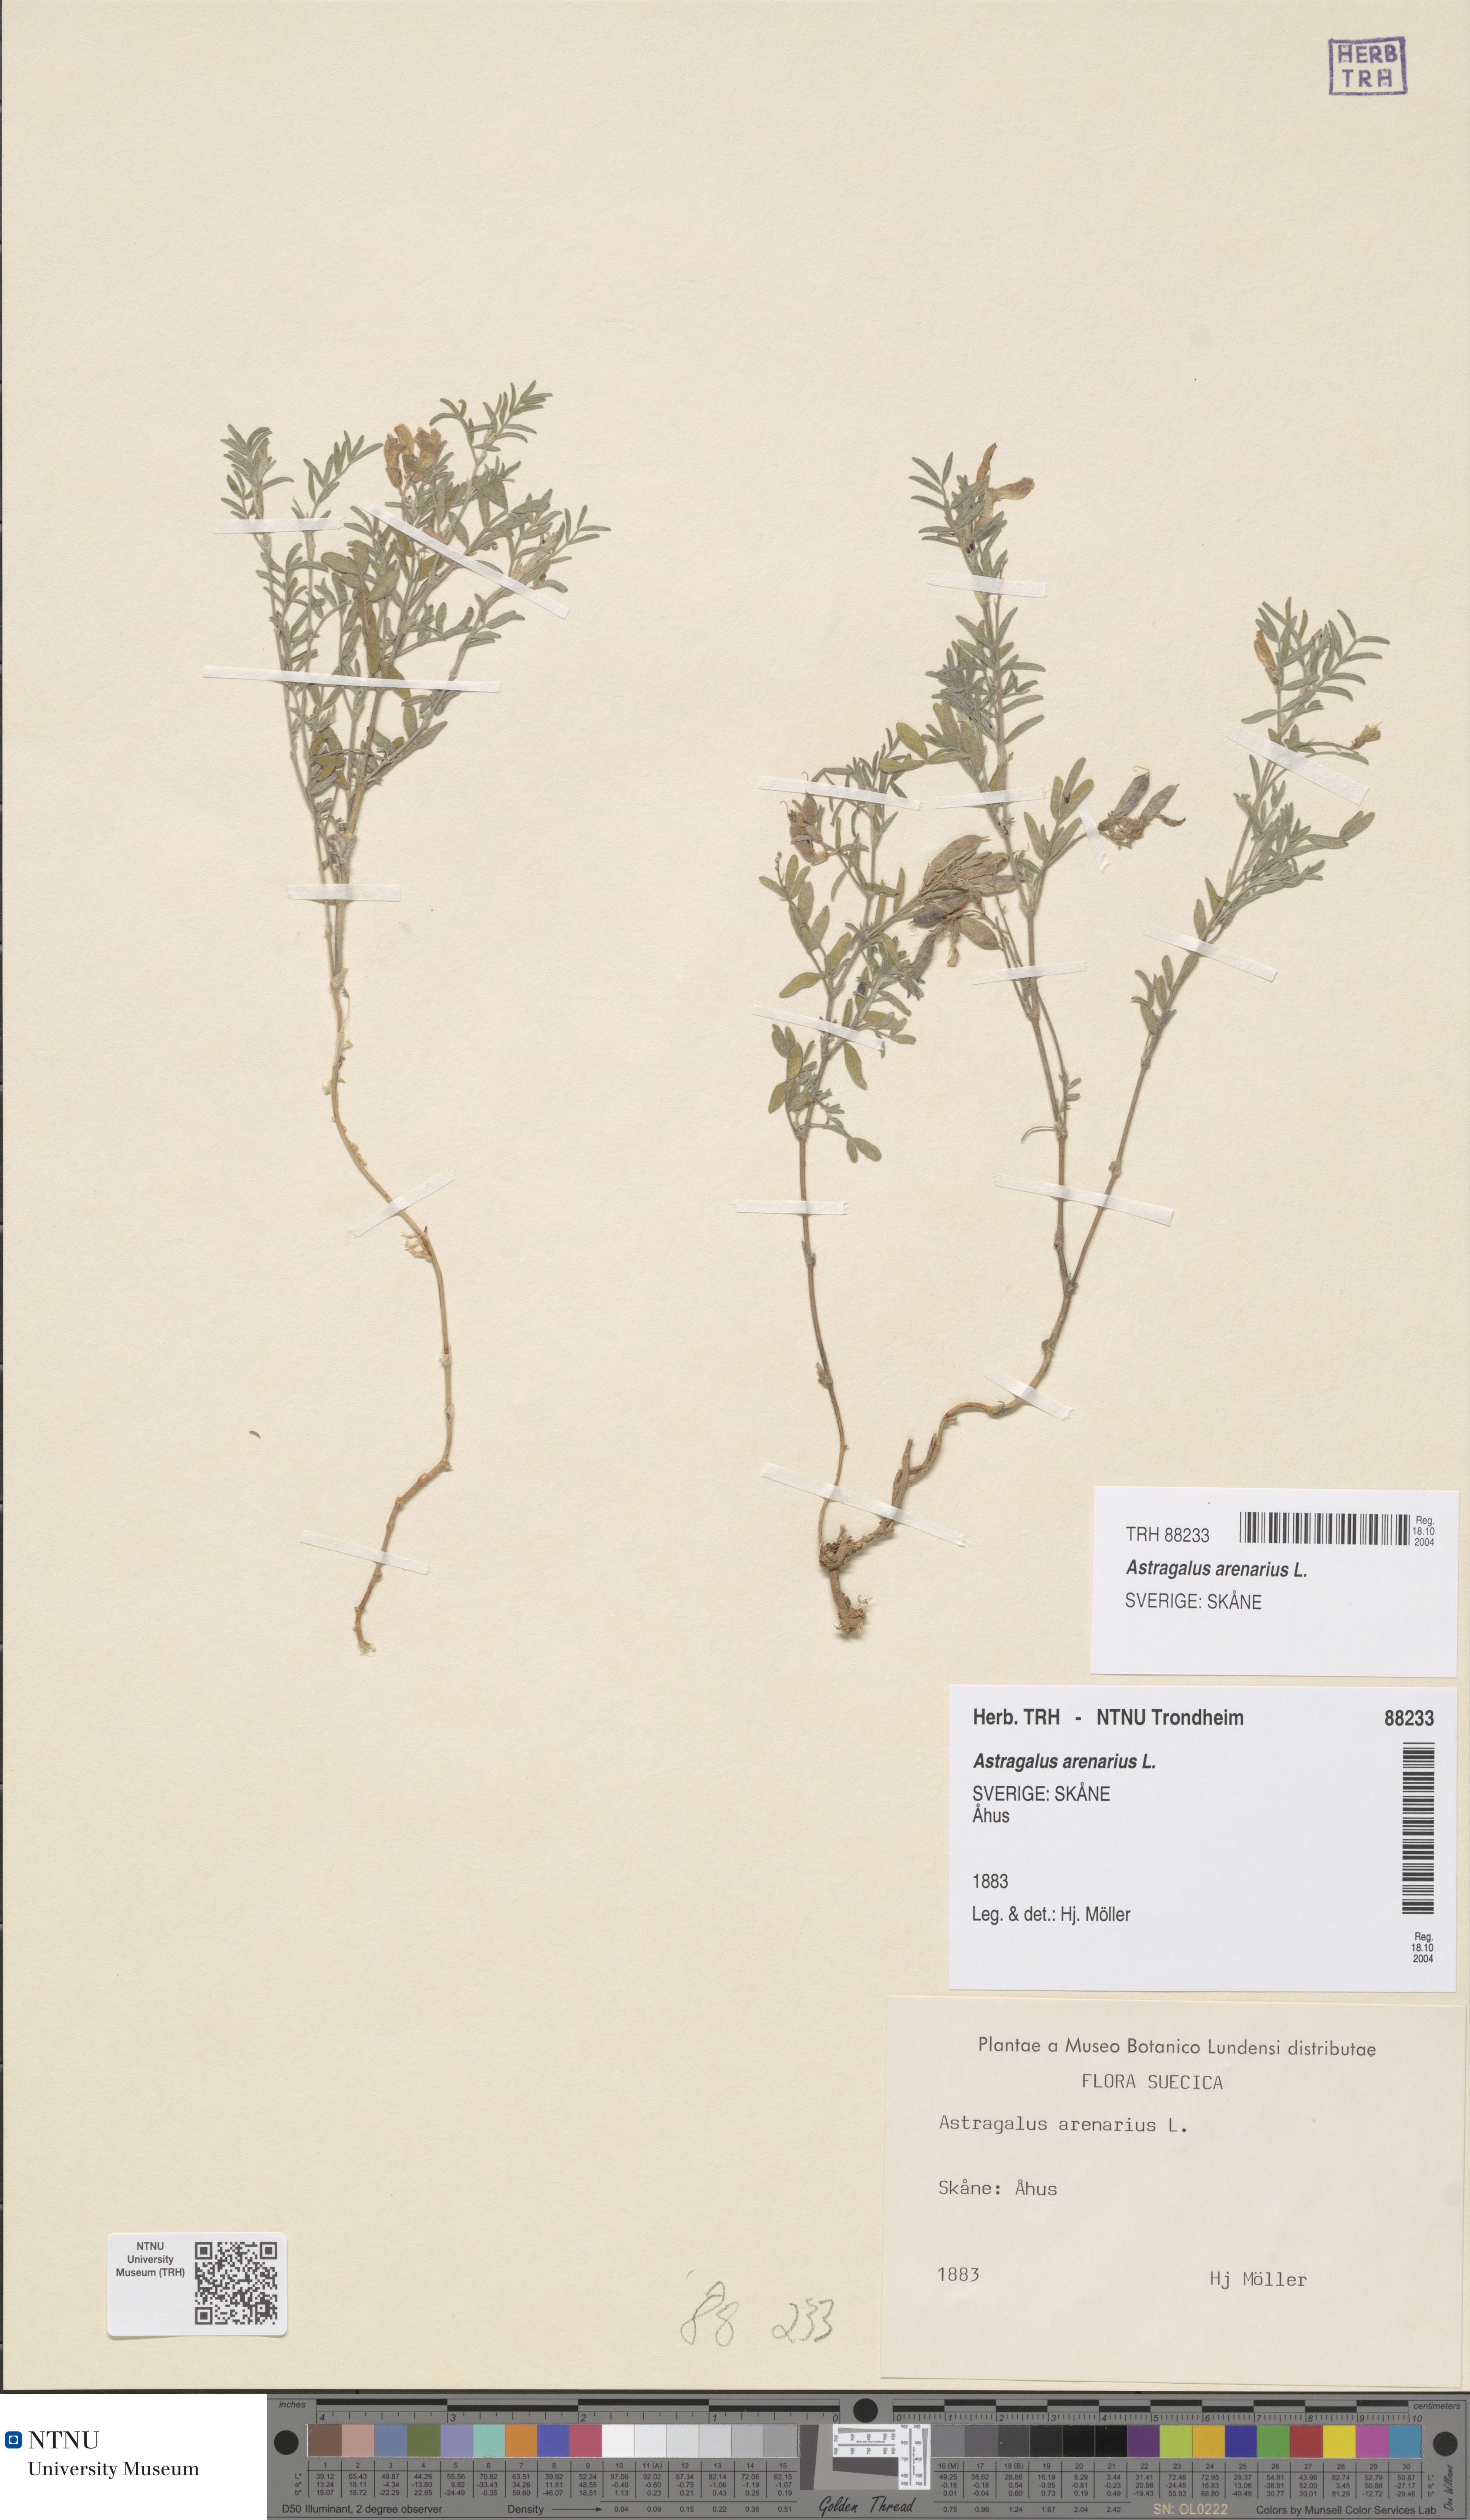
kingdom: Plantae
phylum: Tracheophyta
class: Magnoliopsida
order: Fabales
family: Fabaceae
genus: Astragalus
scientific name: Astragalus arenarius
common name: Arenarious milk-vetch
